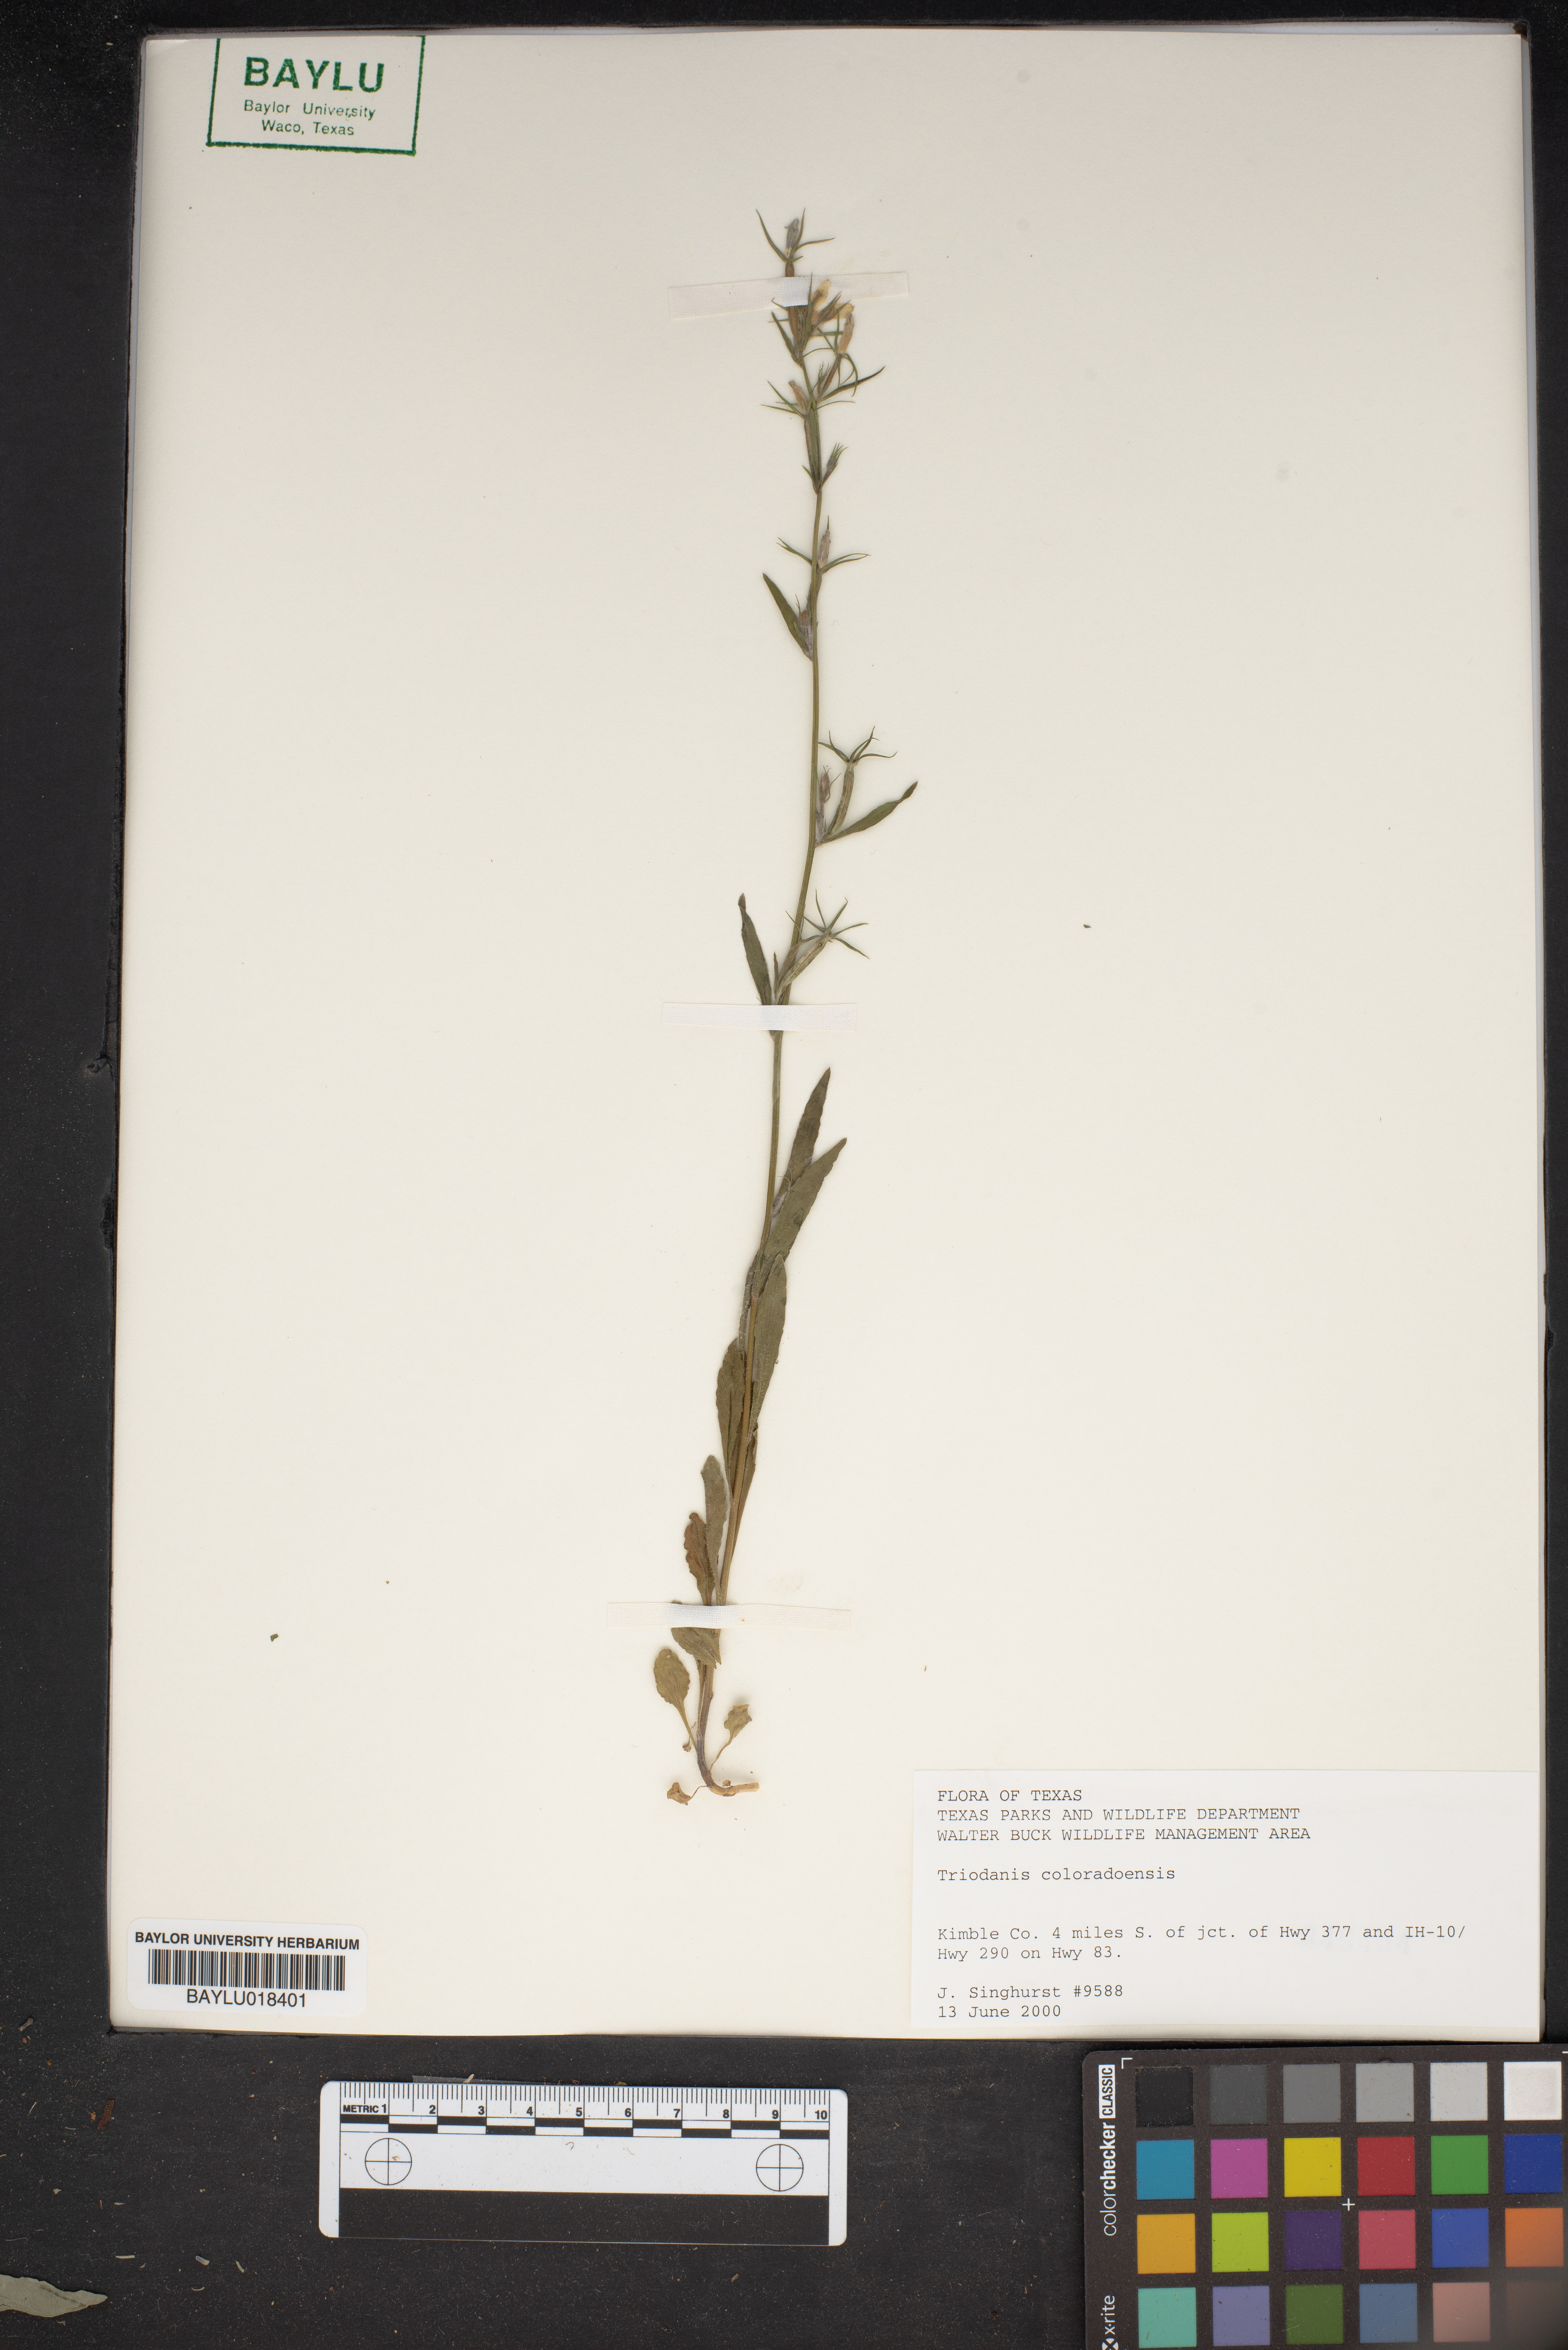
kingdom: Plantae
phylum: Tracheophyta
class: Magnoliopsida
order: Asterales
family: Campanulaceae
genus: Triodanis
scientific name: Triodanis coloradoensis
